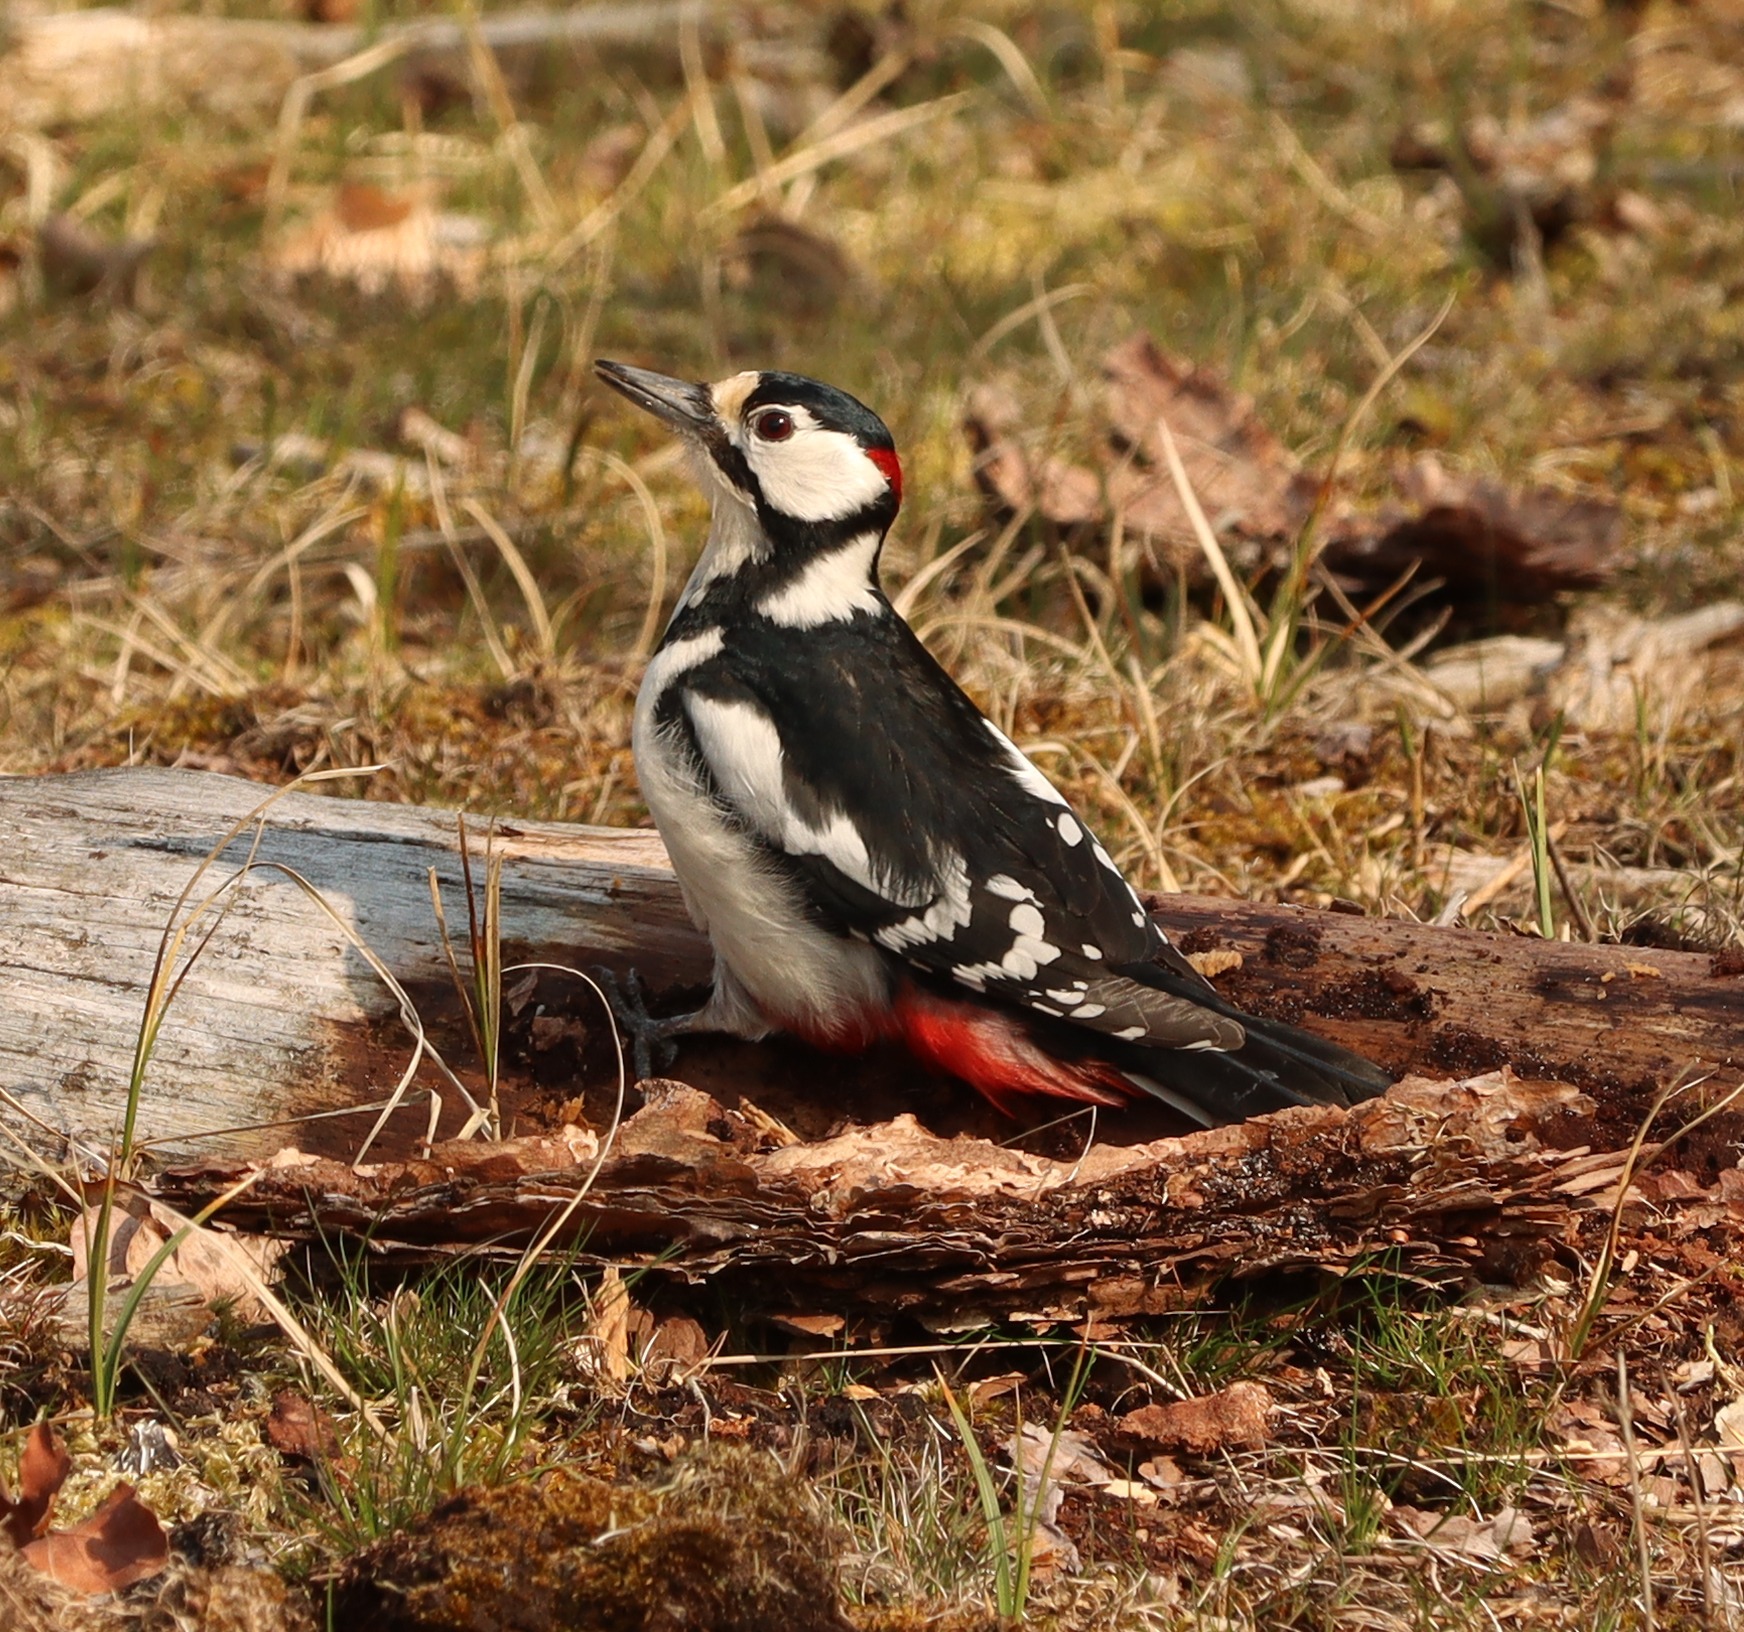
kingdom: Animalia
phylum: Chordata
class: Aves
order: Piciformes
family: Picidae
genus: Dendrocopos
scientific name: Dendrocopos major
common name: Stor flagspætte
